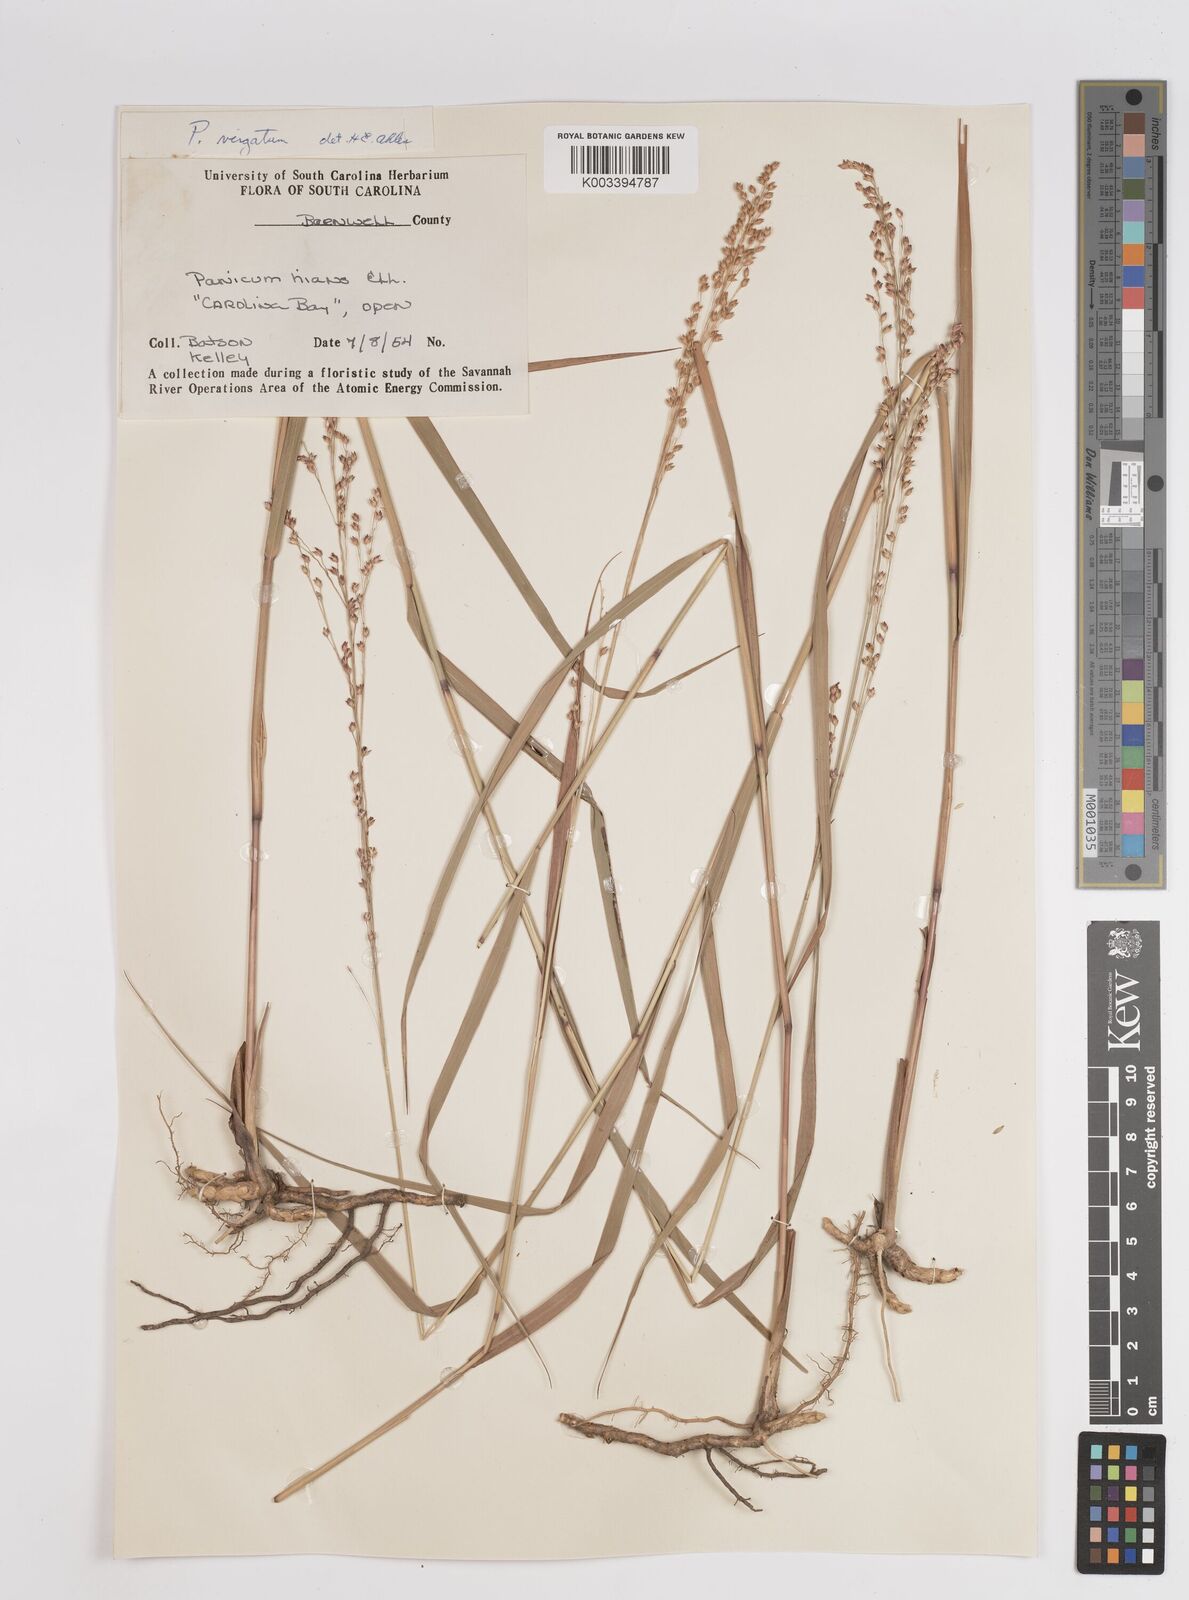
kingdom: Plantae
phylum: Tracheophyta
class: Liliopsida
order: Poales
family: Poaceae
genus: Panicum
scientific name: Panicum virgatum
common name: Switchgrass
